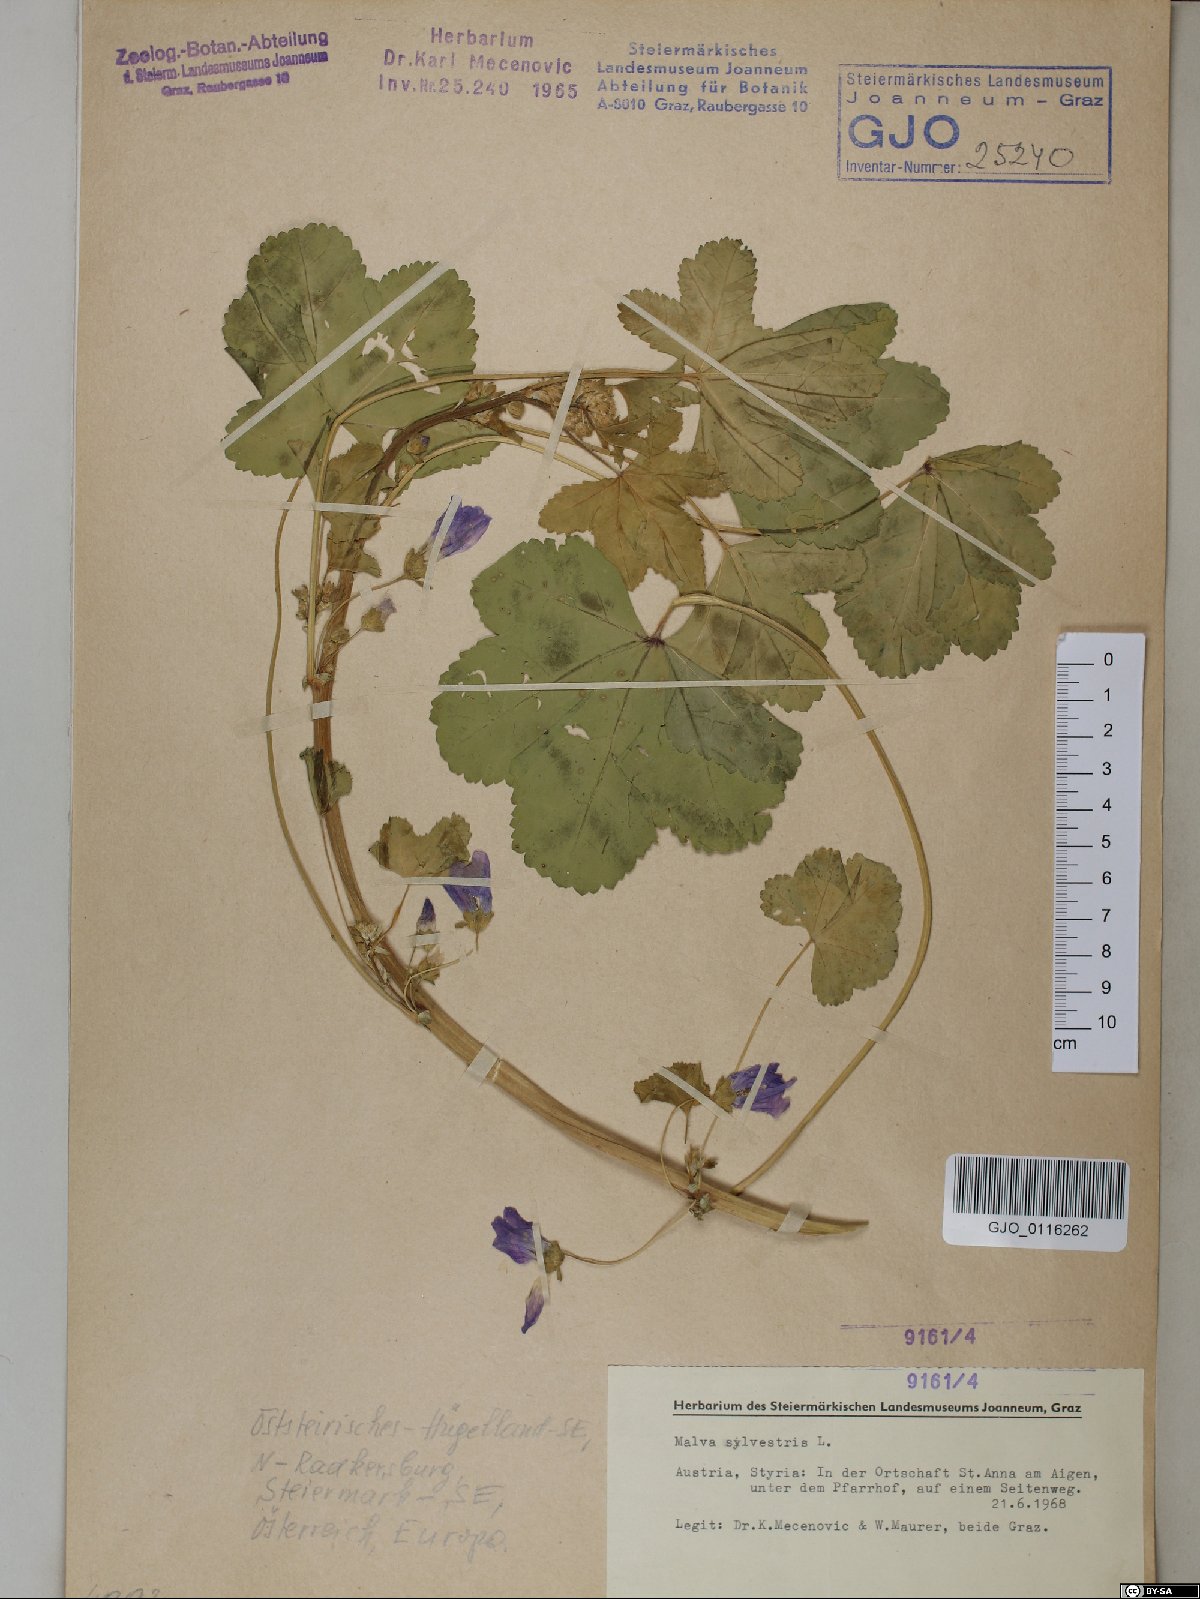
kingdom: Plantae
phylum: Tracheophyta
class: Magnoliopsida
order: Malvales
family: Malvaceae
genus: Malva
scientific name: Malva sylvestris
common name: Common mallow
